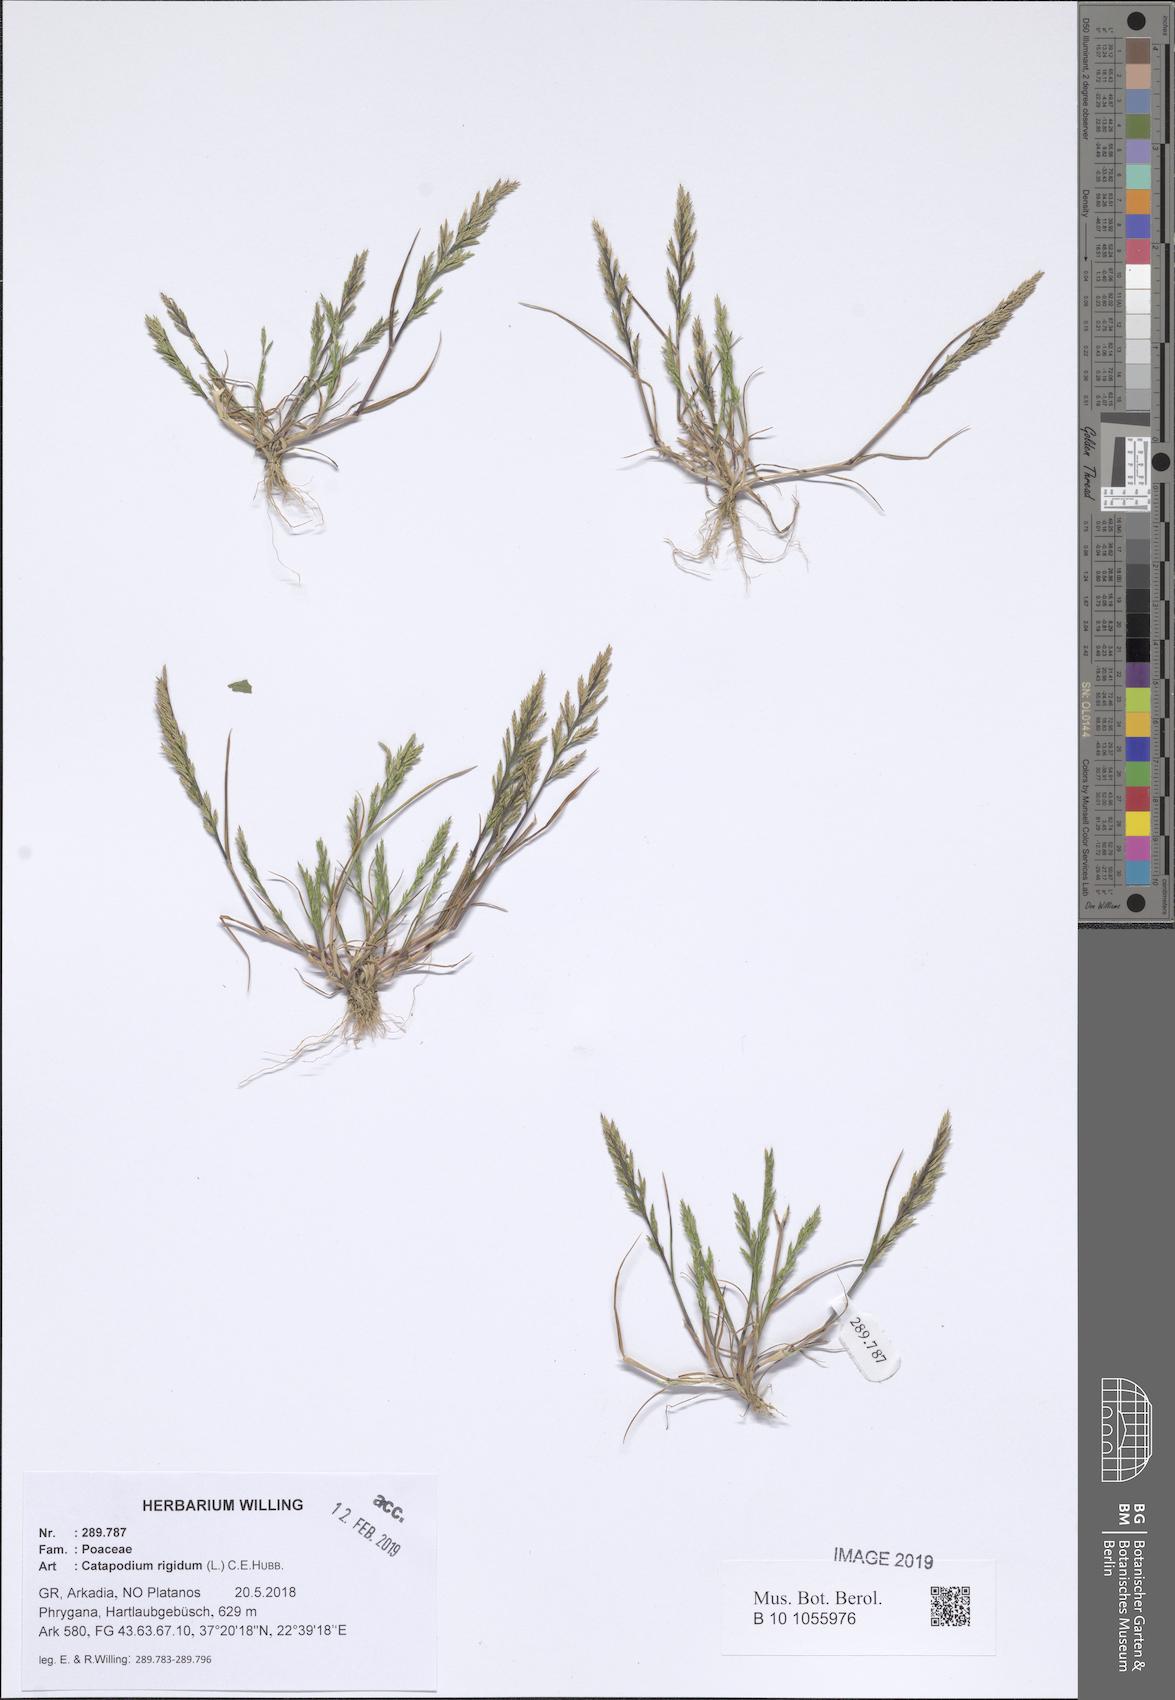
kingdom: Plantae
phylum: Tracheophyta
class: Liliopsida
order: Poales
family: Poaceae
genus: Catapodium
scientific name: Catapodium rigidum
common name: Fern-grass
